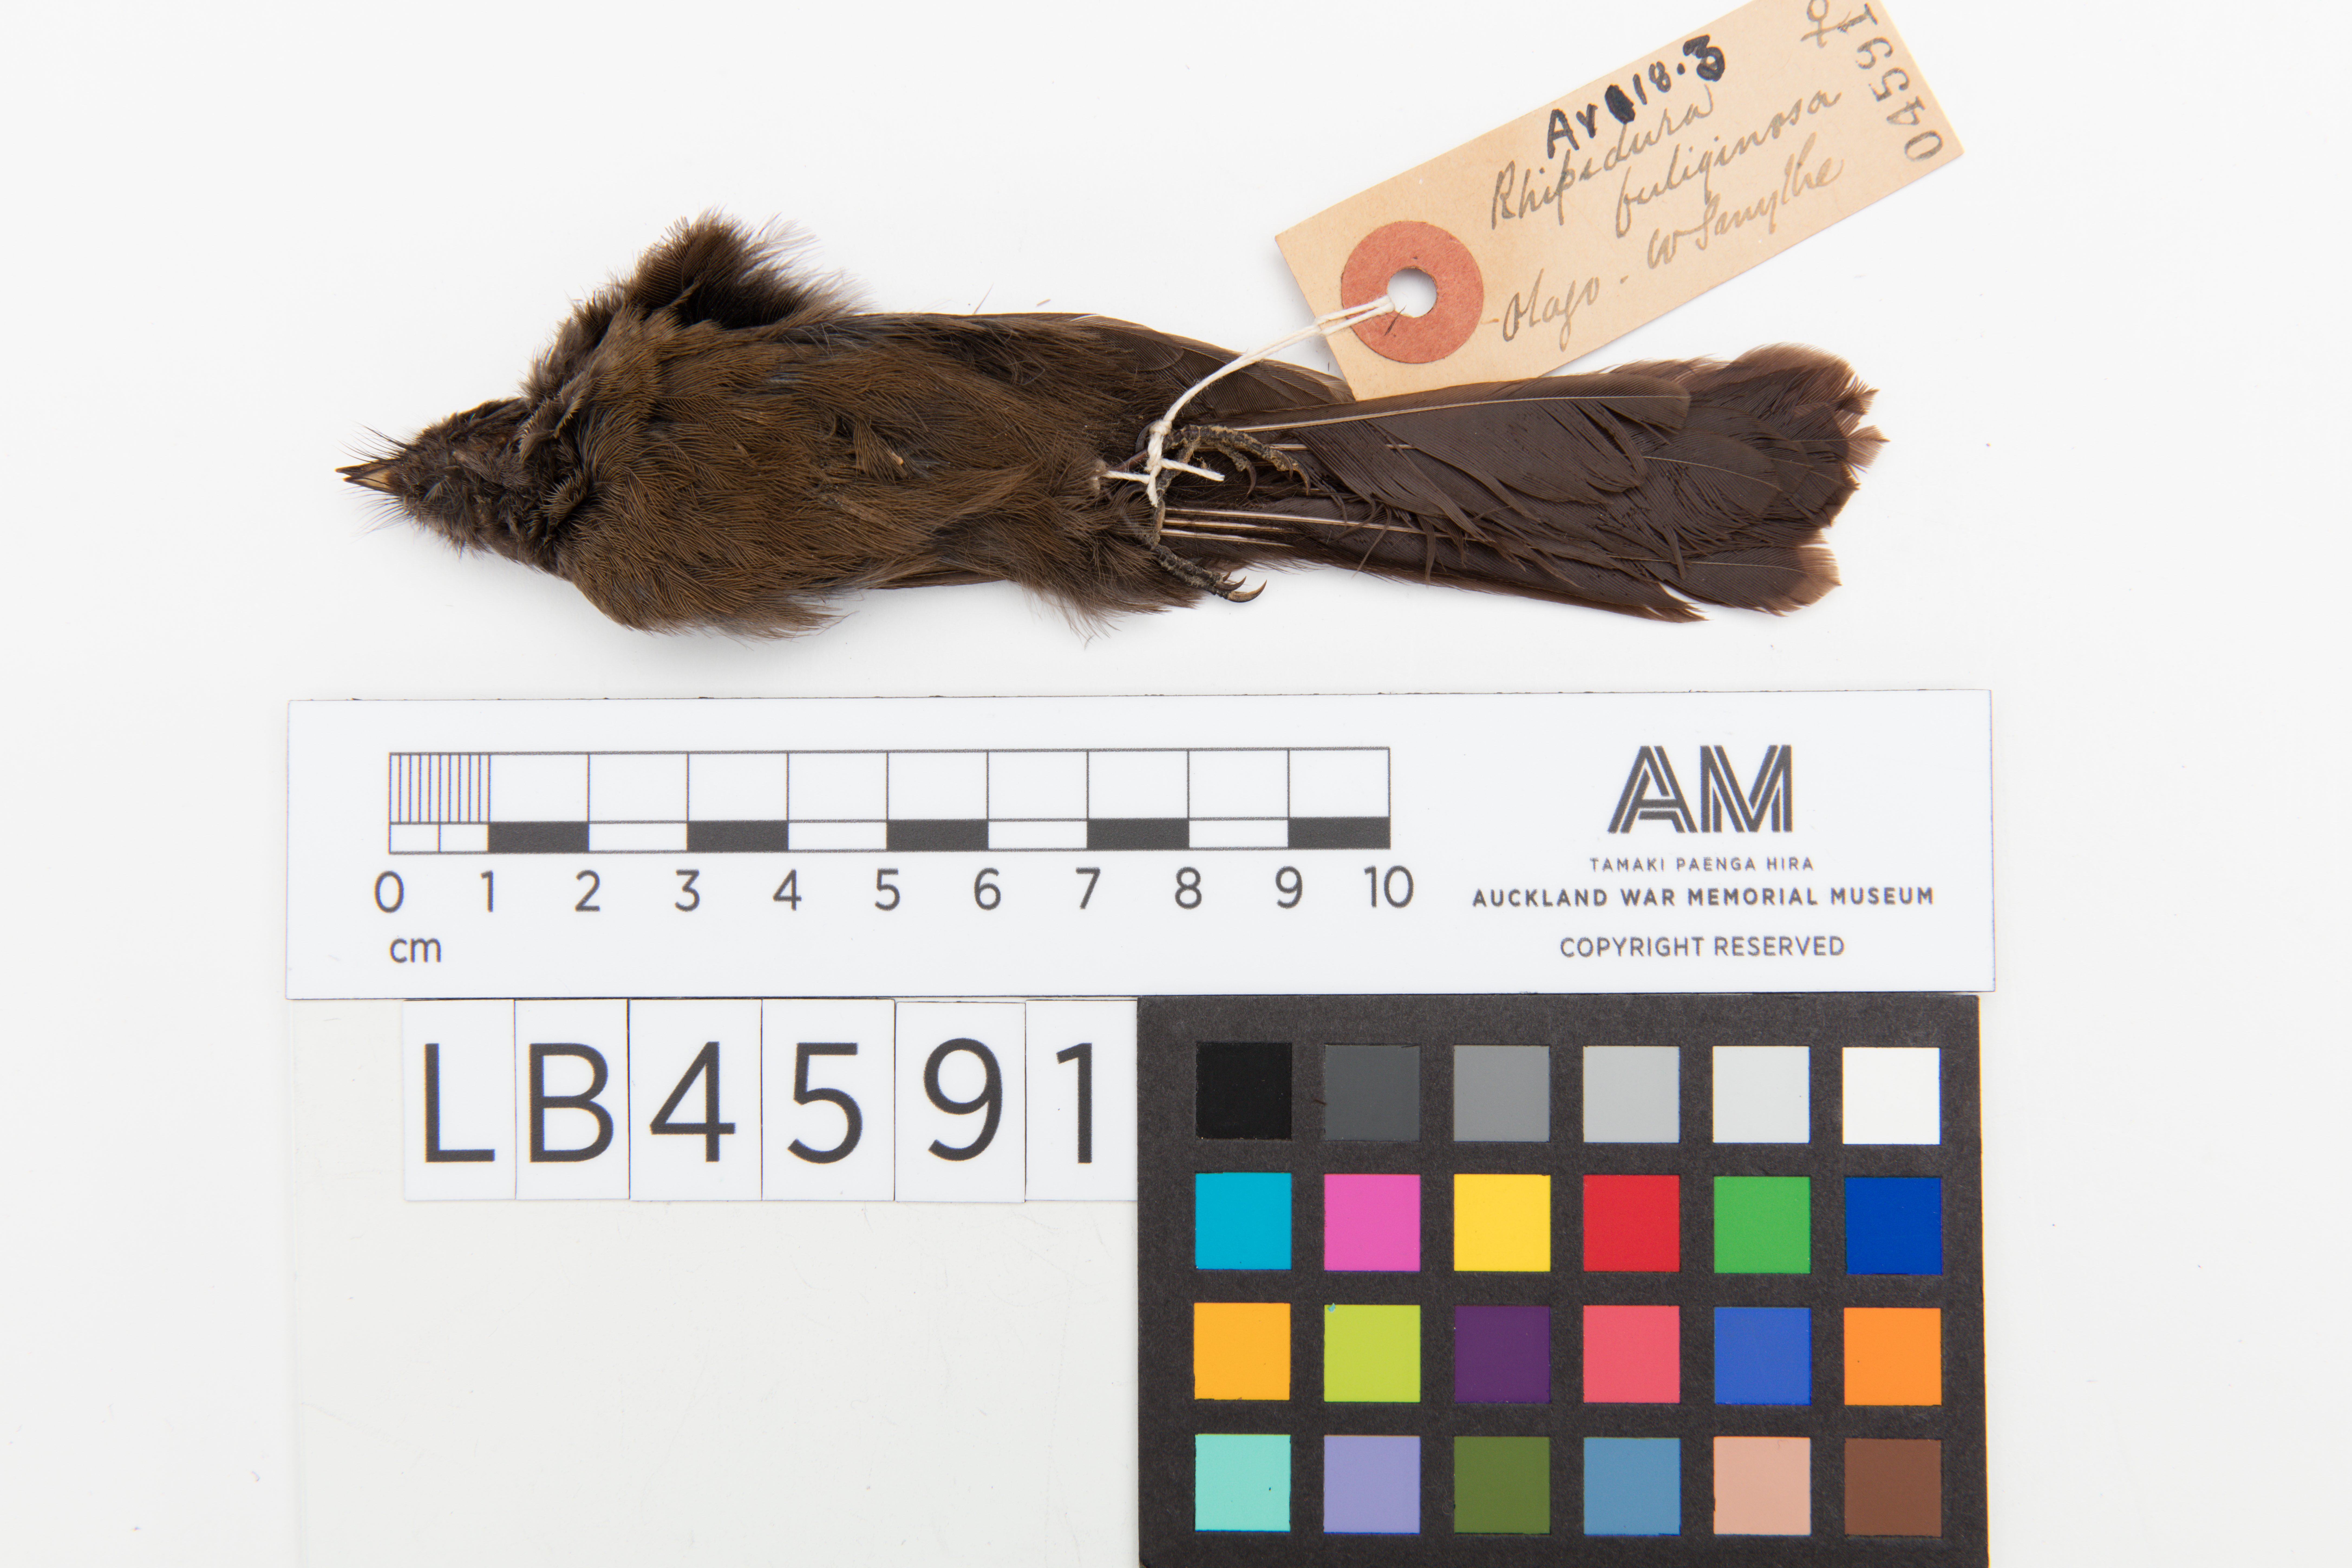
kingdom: Animalia
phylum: Chordata
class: Aves
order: Passeriformes
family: Rhipiduridae
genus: Rhipidura
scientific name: Rhipidura fuliginosa
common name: New zealand fantail
